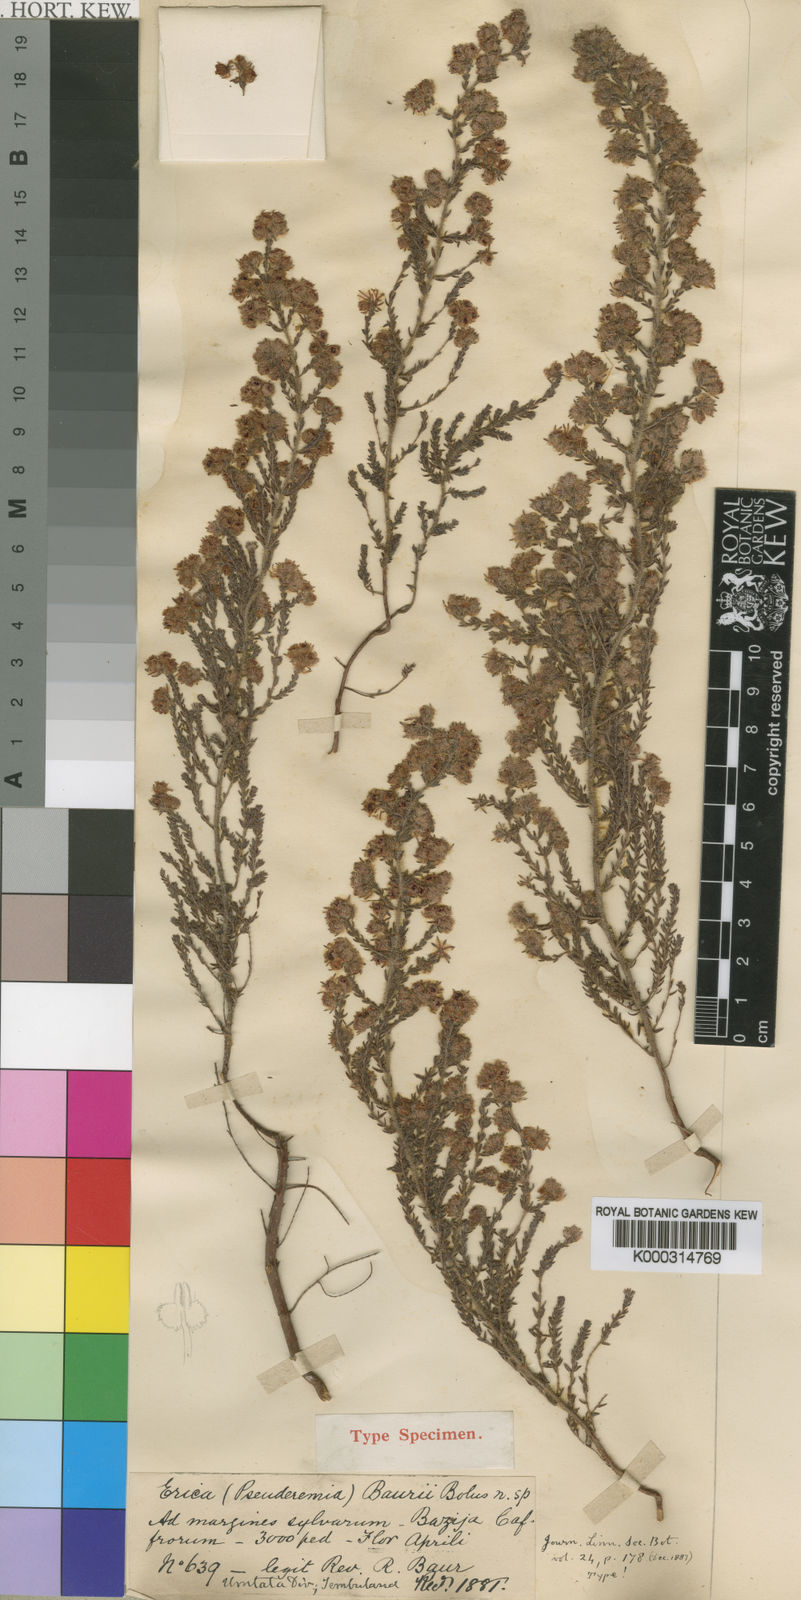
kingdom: Plantae
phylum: Tracheophyta
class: Magnoliopsida
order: Ericales
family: Ericaceae
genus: Erica
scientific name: Erica baurii
